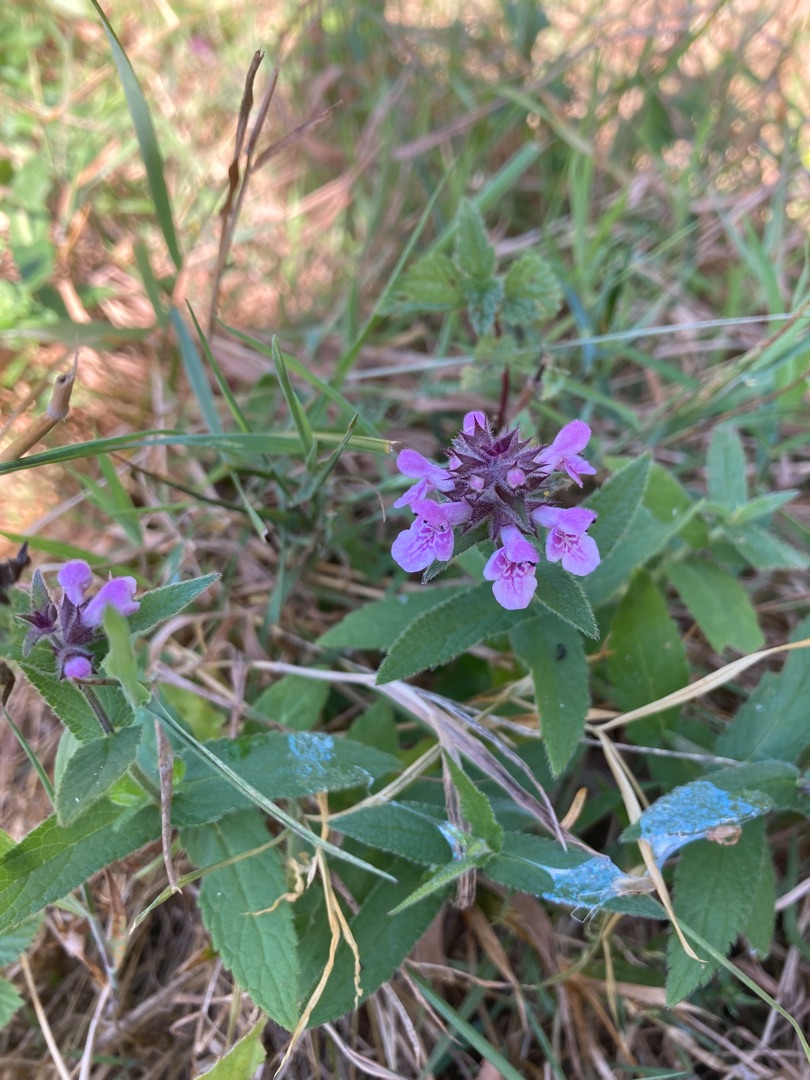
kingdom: Plantae
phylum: Tracheophyta
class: Magnoliopsida
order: Lamiales
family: Lamiaceae
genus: Stachys
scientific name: Stachys palustris
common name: Kær-galtetand
